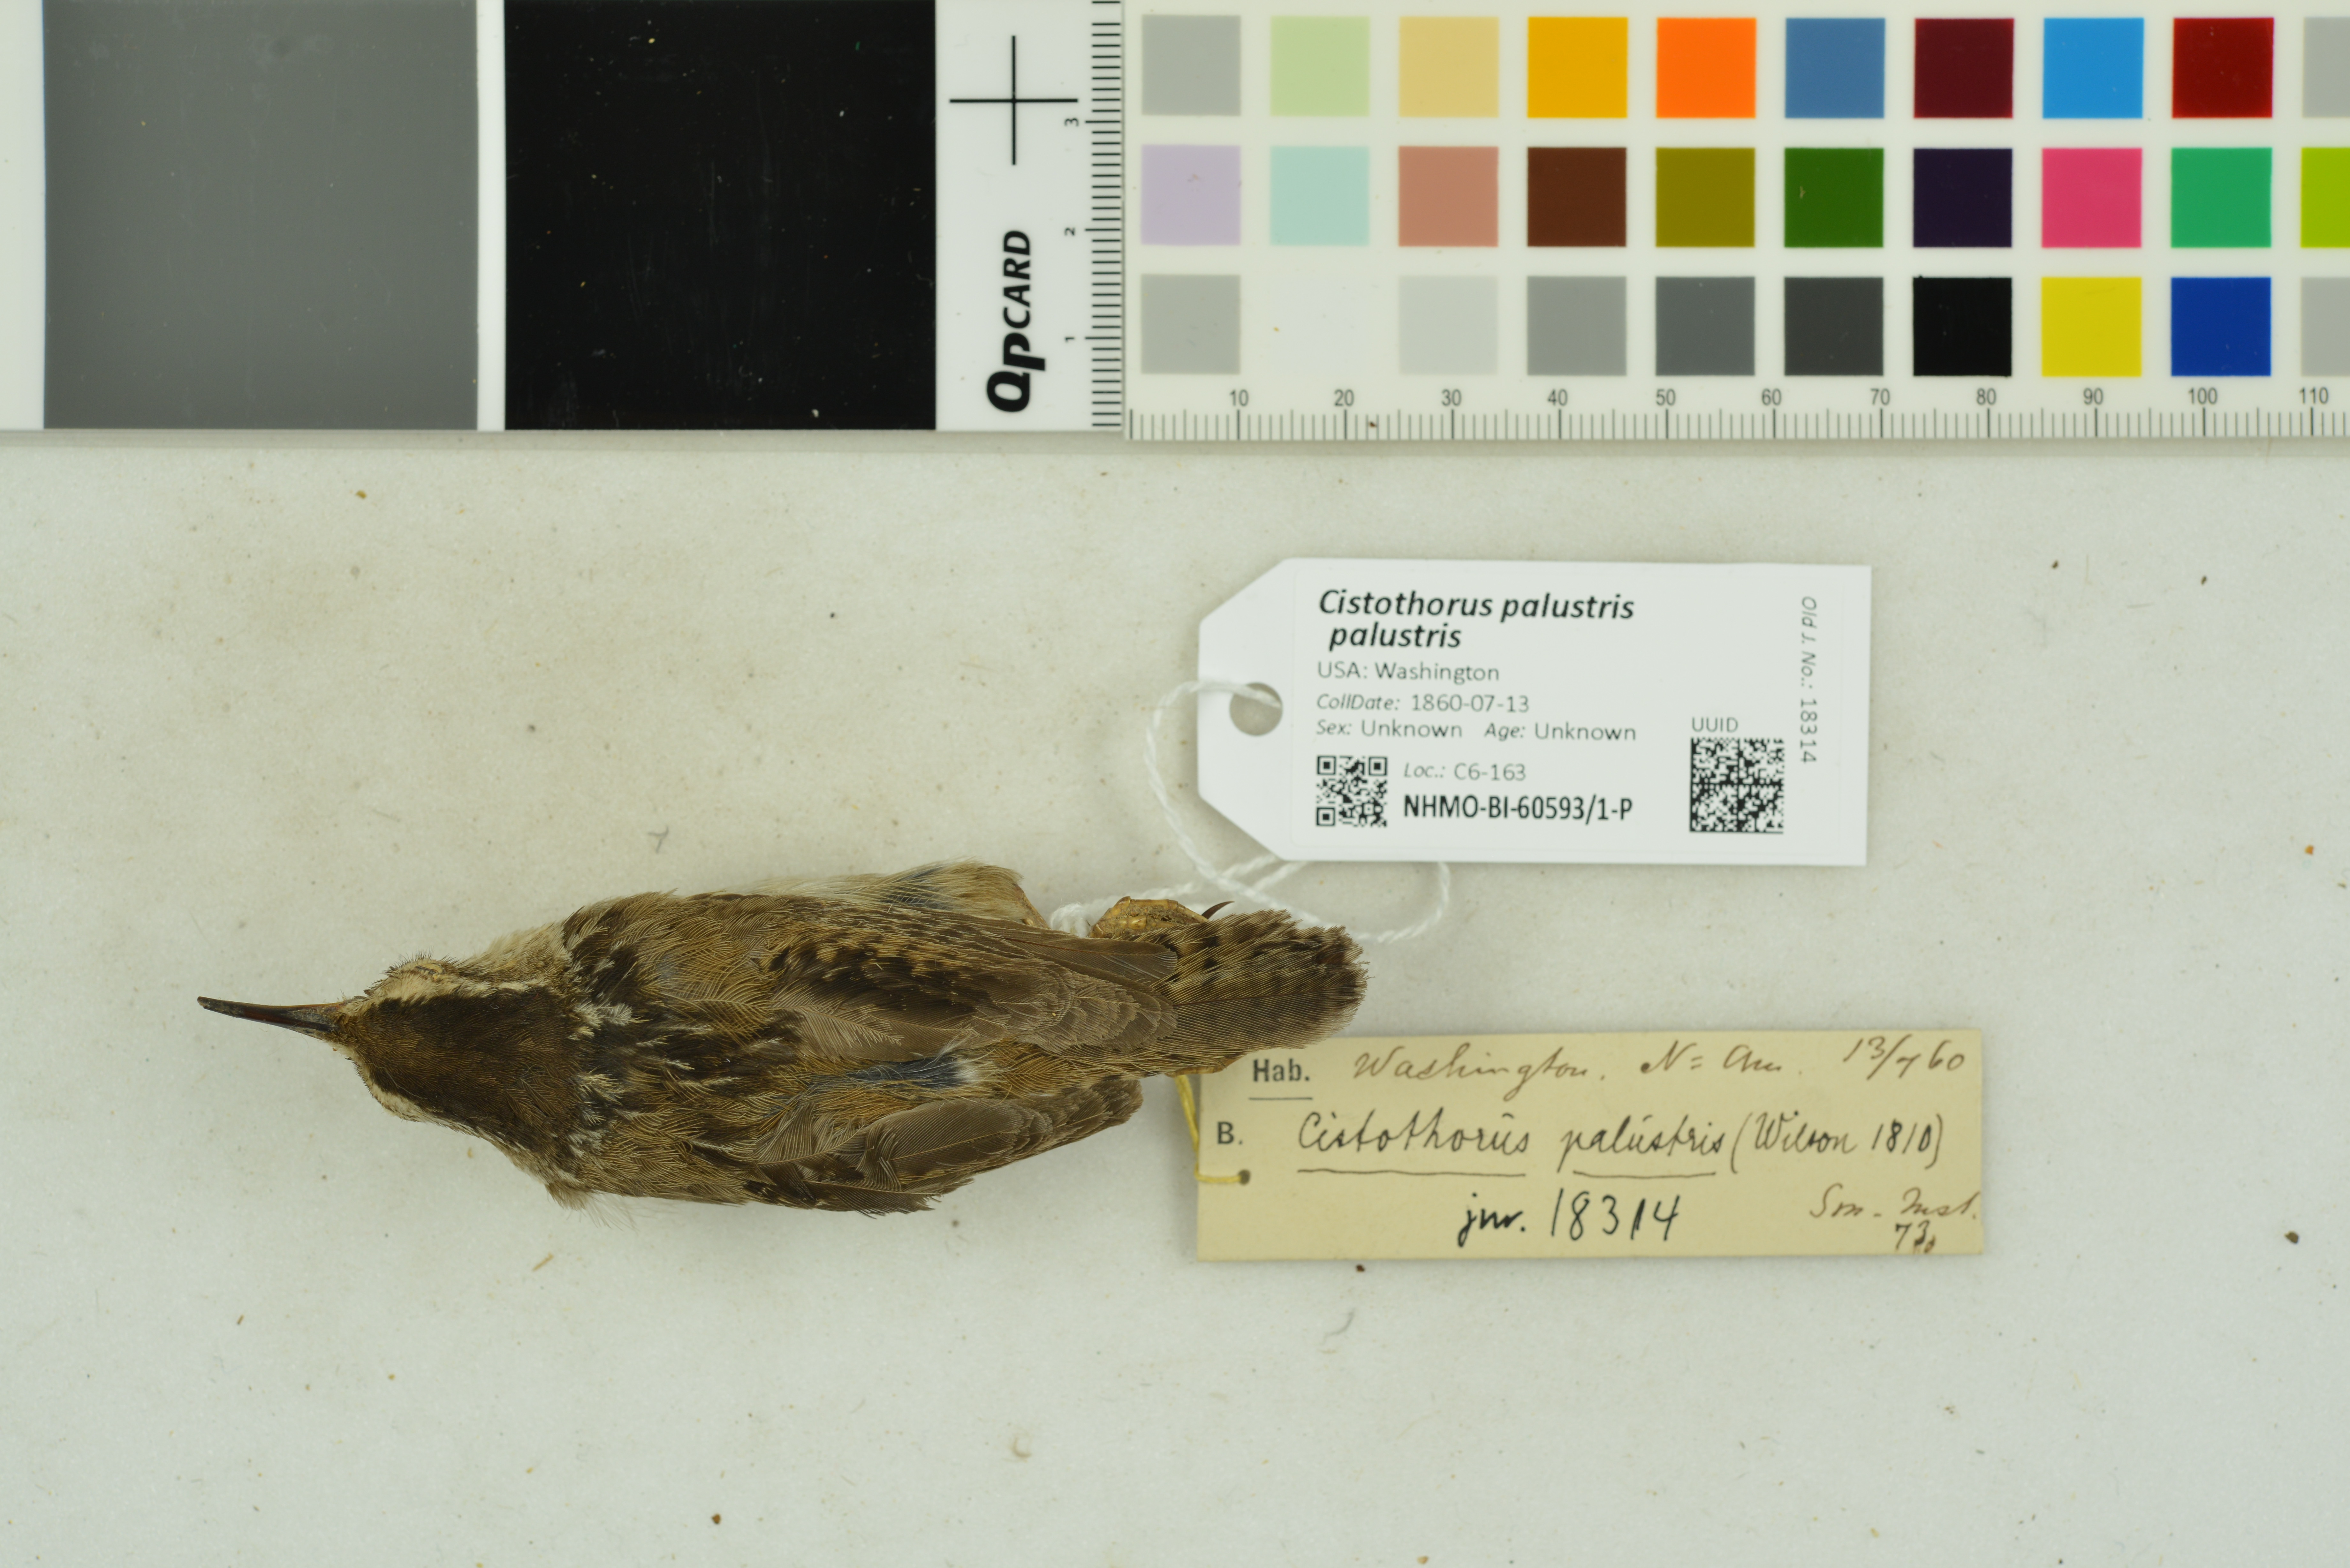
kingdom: Animalia
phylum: Chordata
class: Aves
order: Passeriformes
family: Troglodytidae
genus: Cistothorus
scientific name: Cistothorus palustris
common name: Marsh wren
